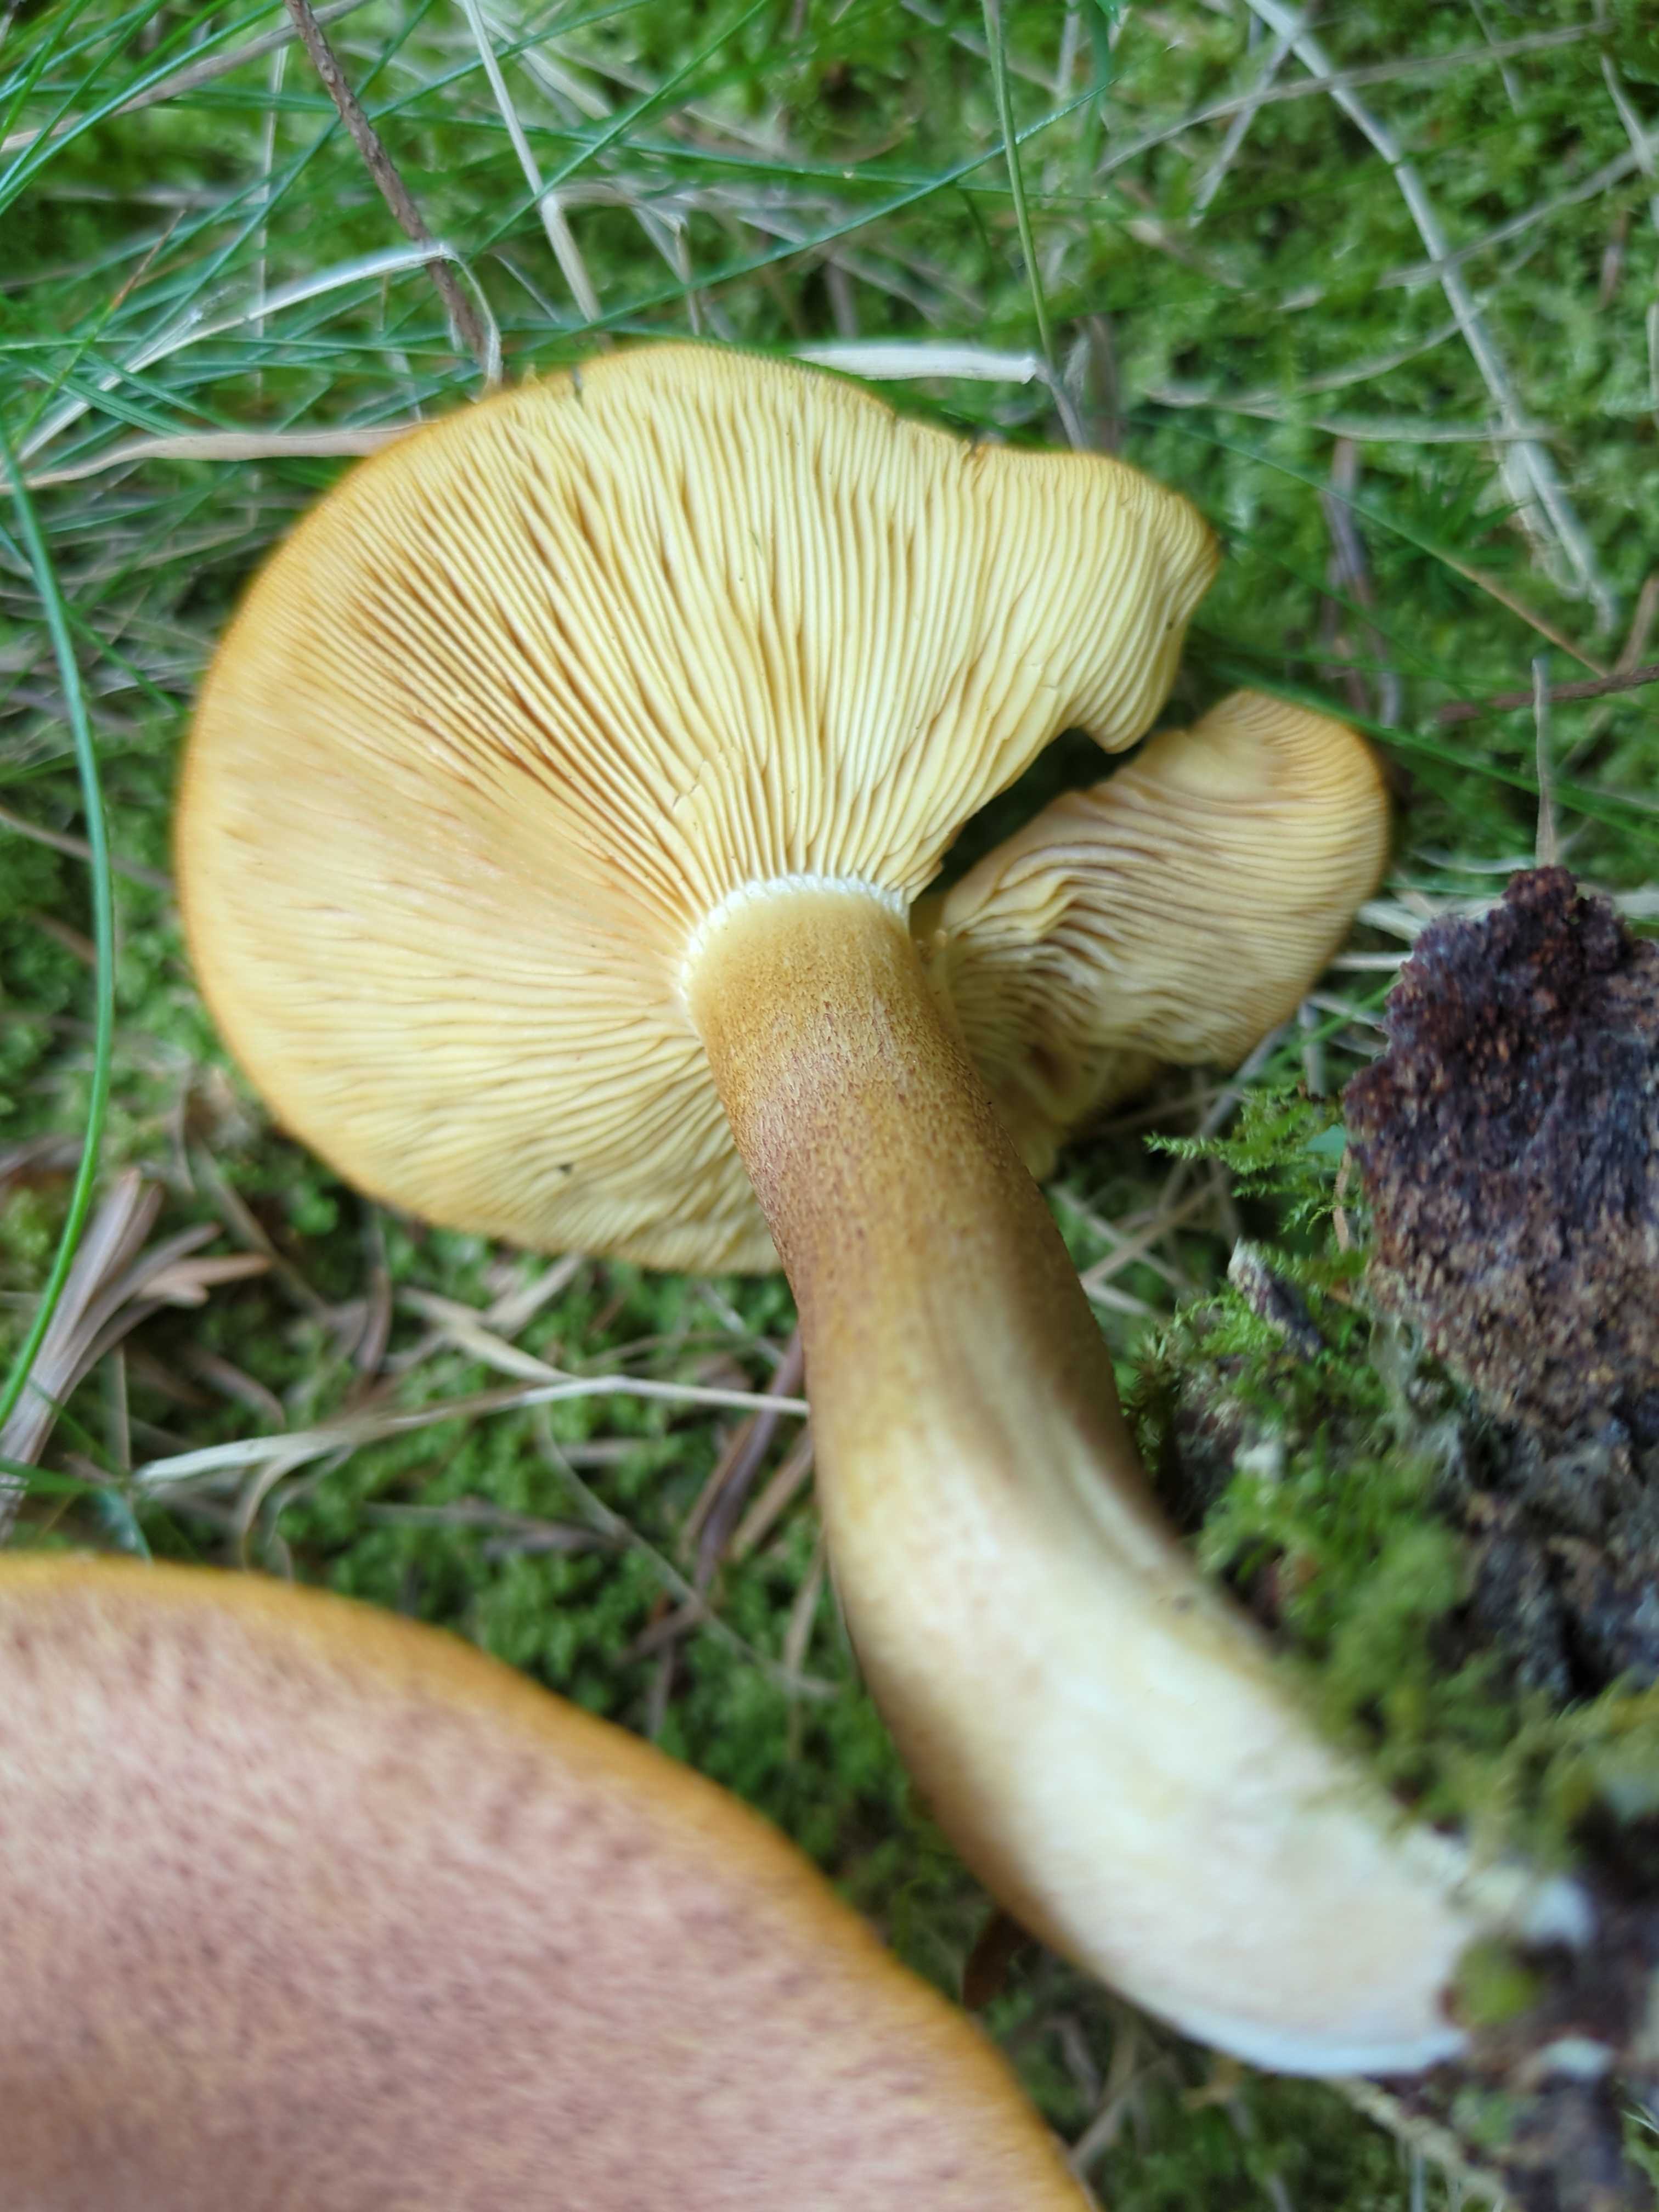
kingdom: Fungi
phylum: Basidiomycota
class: Agaricomycetes
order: Agaricales
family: Tricholomataceae
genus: Tricholomopsis
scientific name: Tricholomopsis rutilans
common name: purpur-væbnerhat
